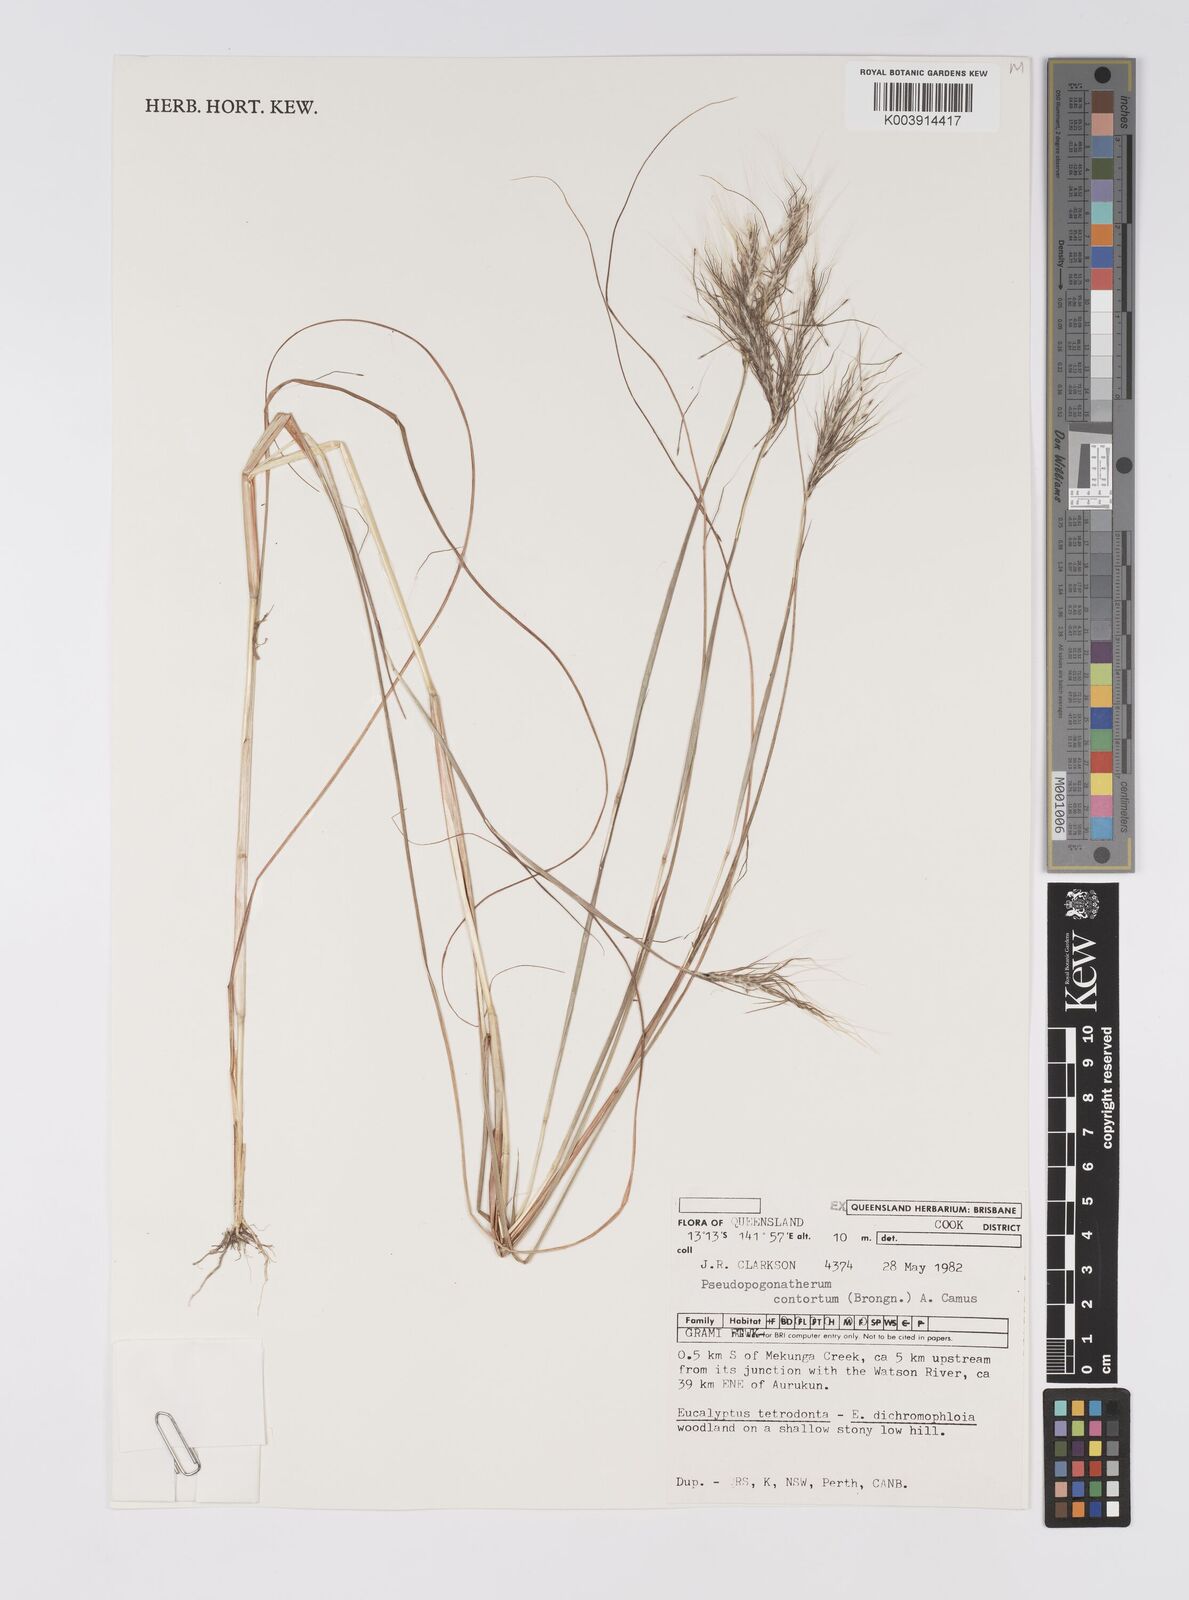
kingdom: Plantae
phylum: Tracheophyta
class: Liliopsida
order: Poales
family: Poaceae
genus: Pseudopogonatherum
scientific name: Pseudopogonatherum contortum
